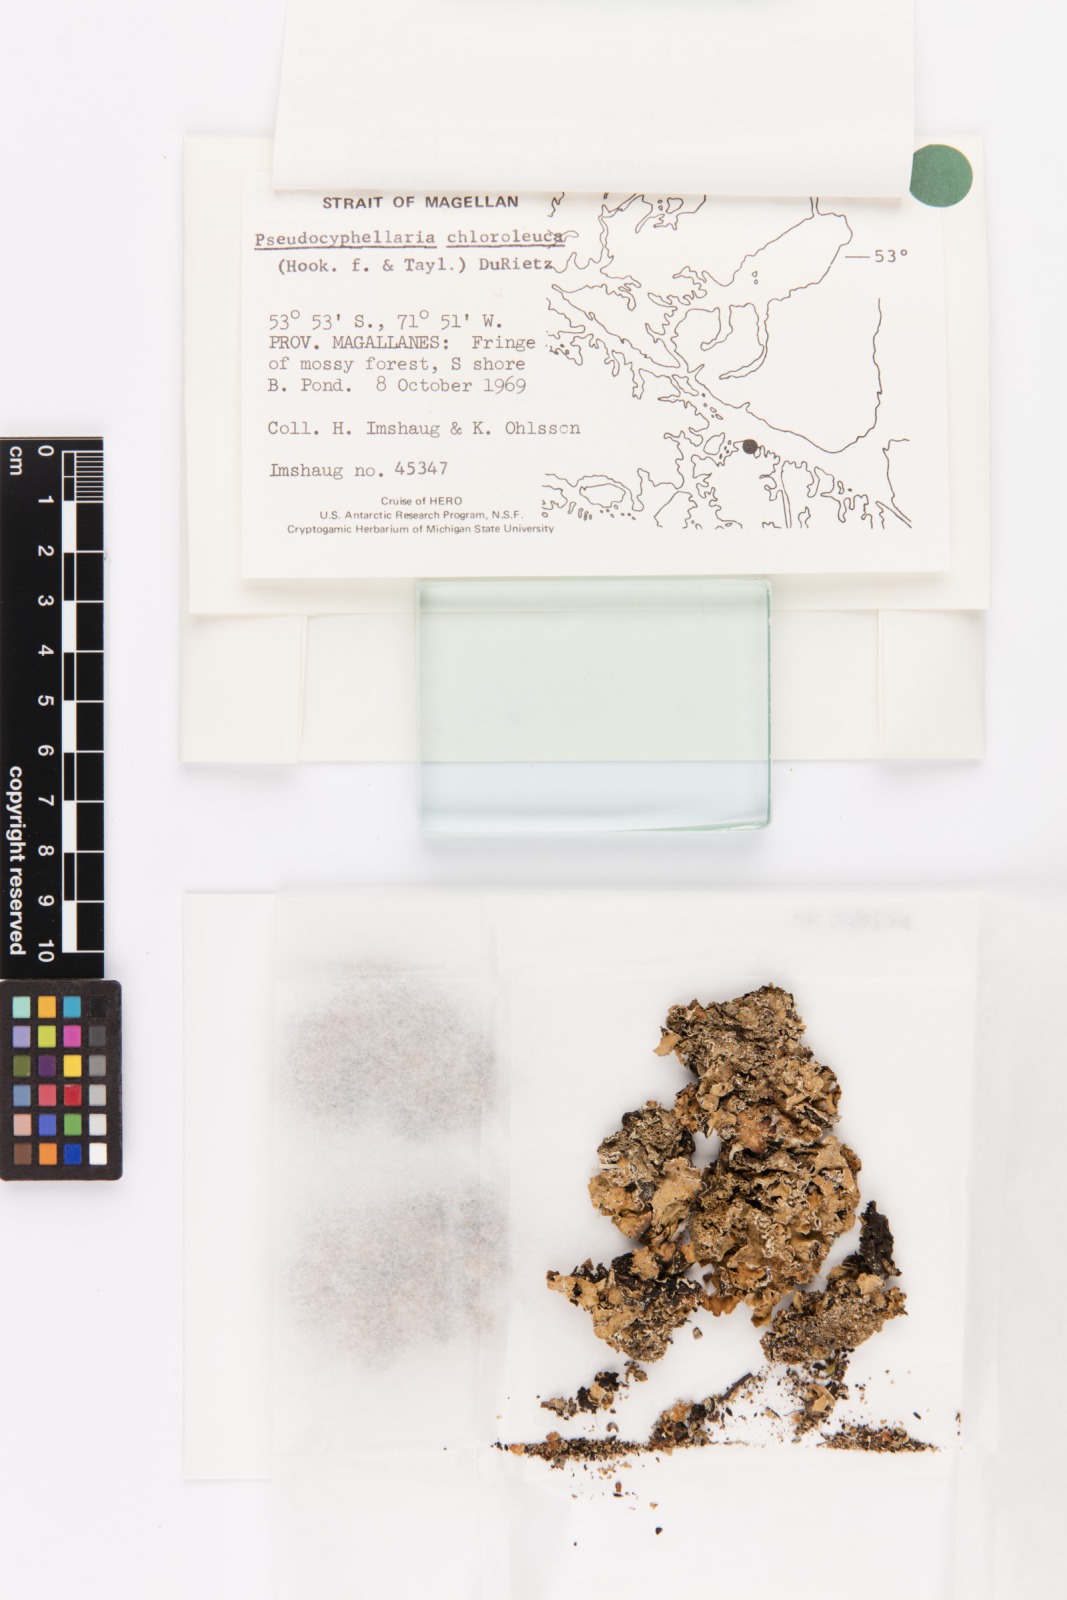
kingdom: Fungi
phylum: Ascomycota
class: Lecanoromycetes
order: Peltigerales
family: Lobariaceae
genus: Pseudocyphellaria
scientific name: Pseudocyphellaria chloroleuca
